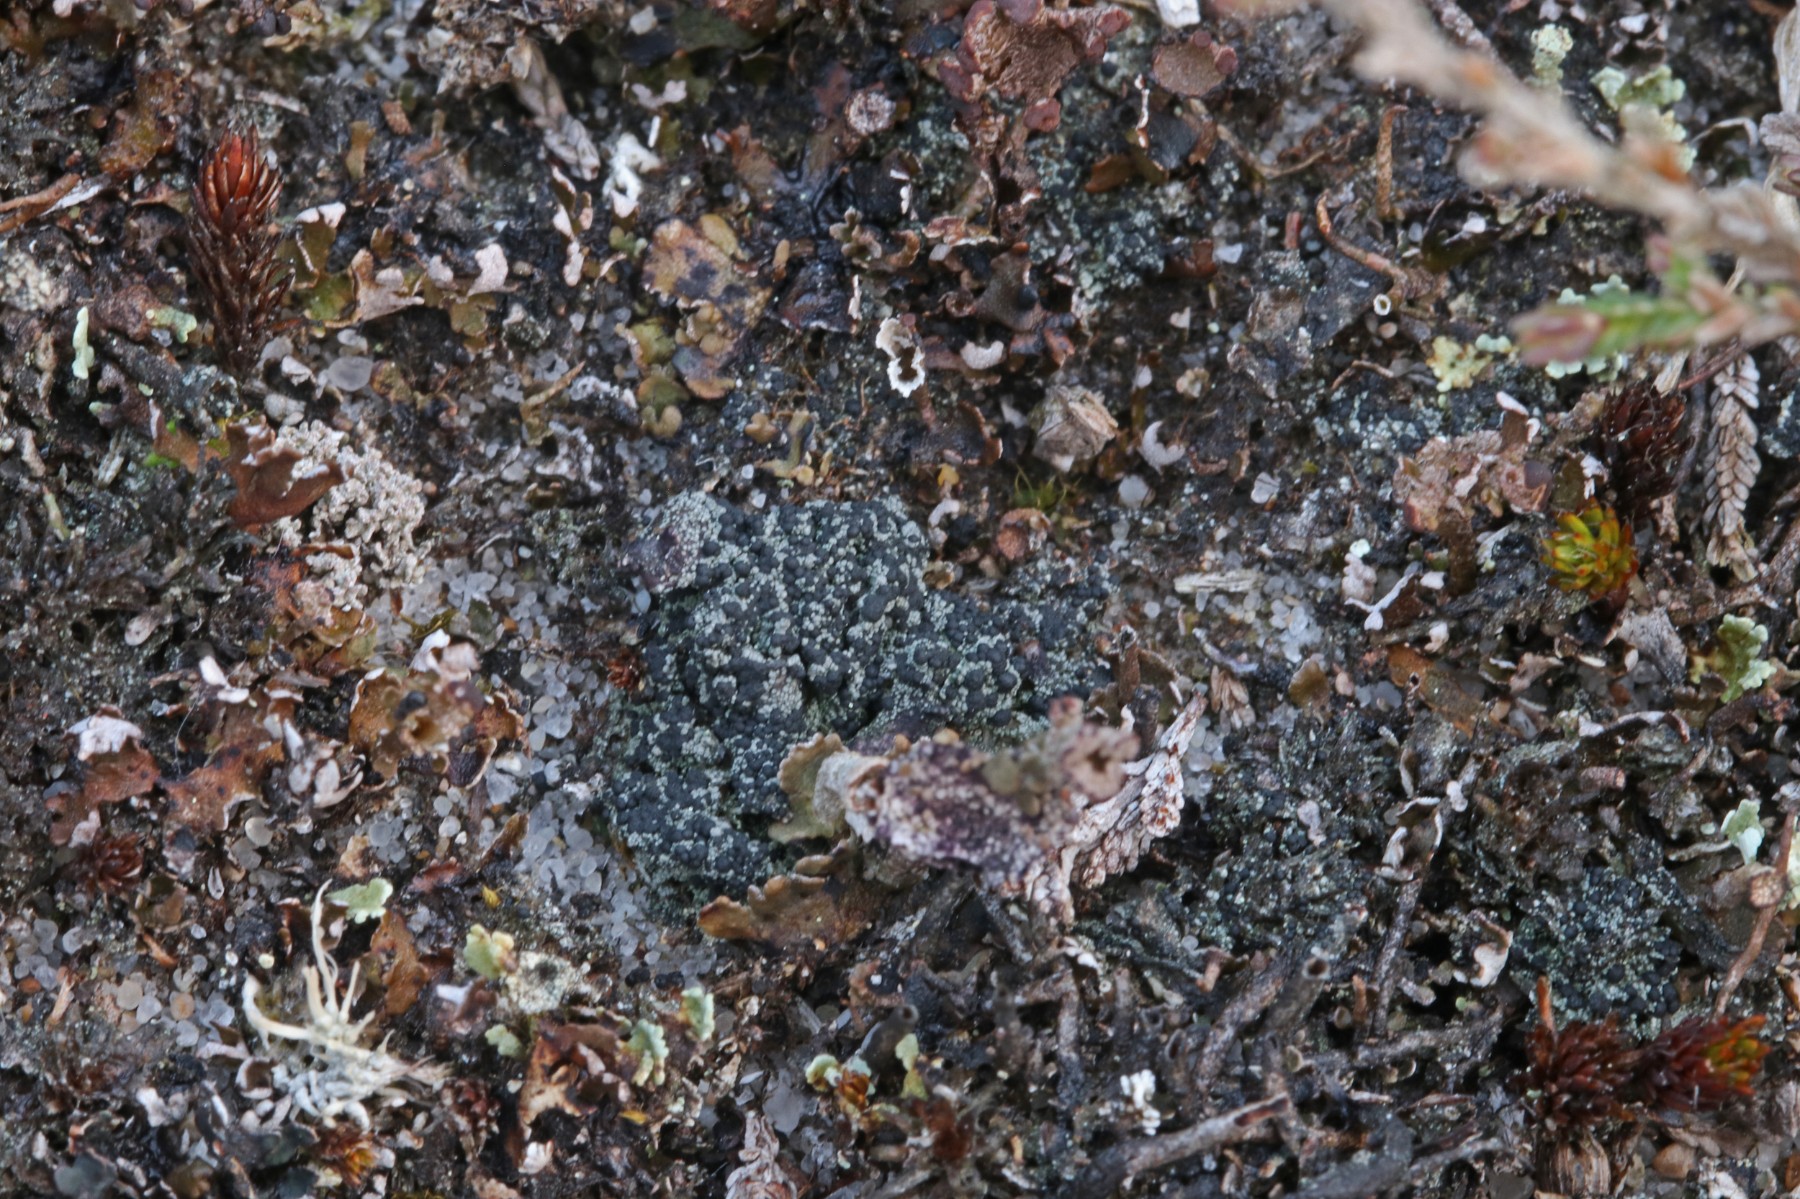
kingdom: Fungi
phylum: Ascomycota
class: Lecanoromycetes
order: Lecanorales
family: Byssolomataceae
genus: Micarea
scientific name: Micarea lignaria
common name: tørve-knaplav
